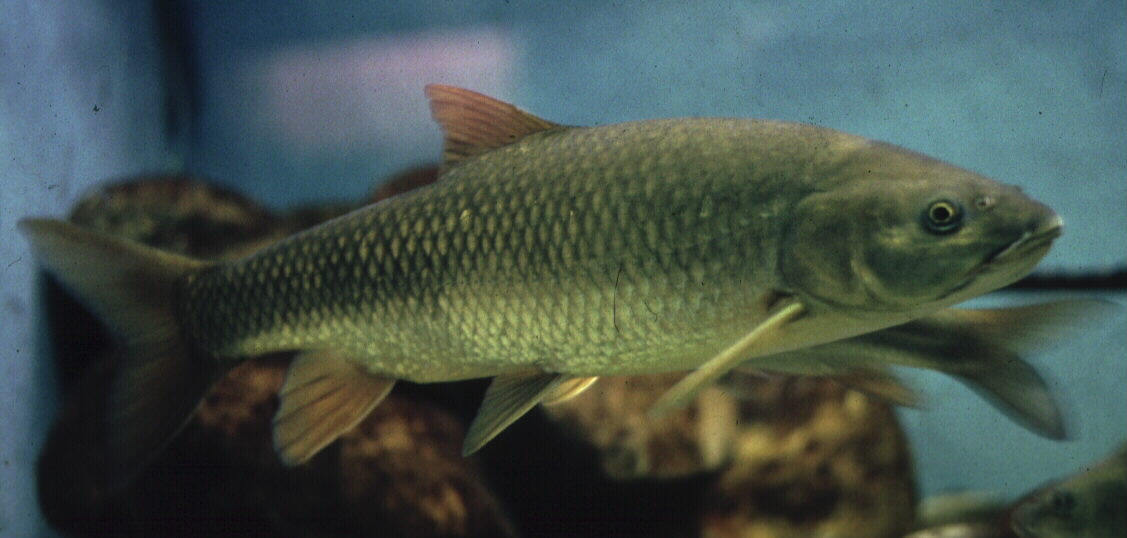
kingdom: Animalia
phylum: Chordata
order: Cypriniformes
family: Cyprinidae
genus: Cheilobarbus
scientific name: Cheilobarbus capensis
